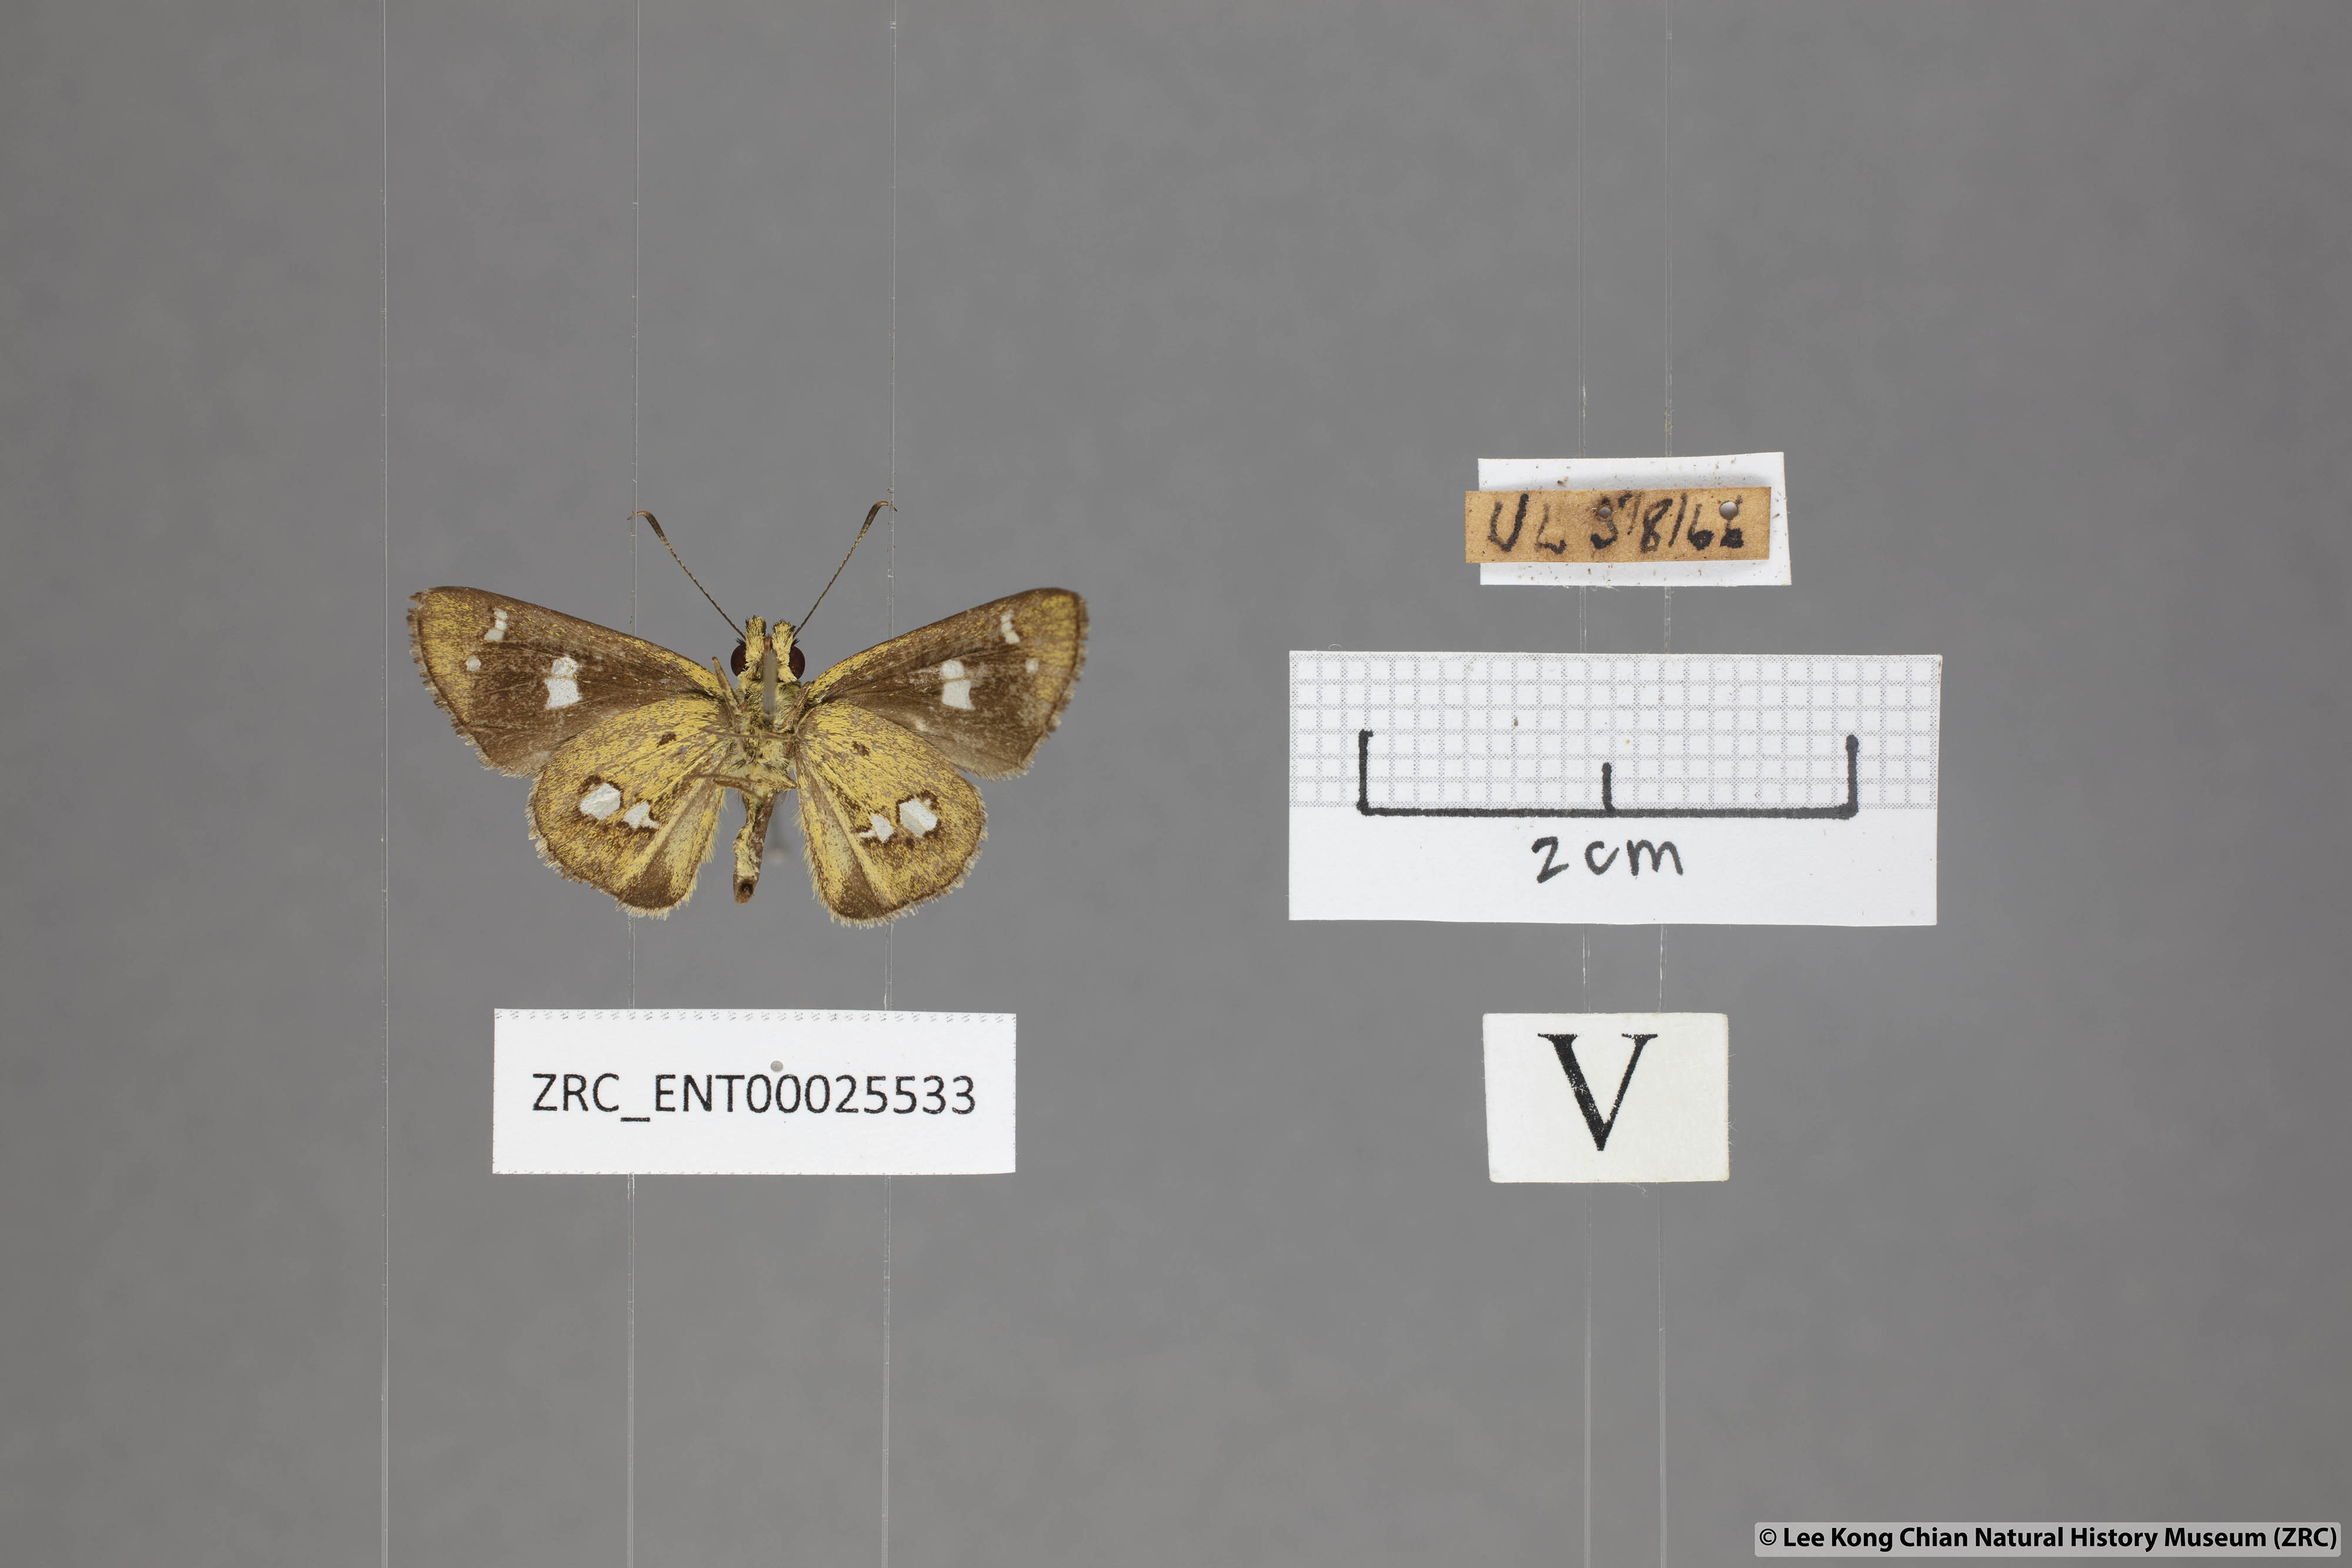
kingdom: Animalia
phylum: Arthropoda
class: Insecta
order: Lepidoptera
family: Hesperiidae
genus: Scobura
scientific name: Scobura isota
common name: Swinhoe's forest bob
